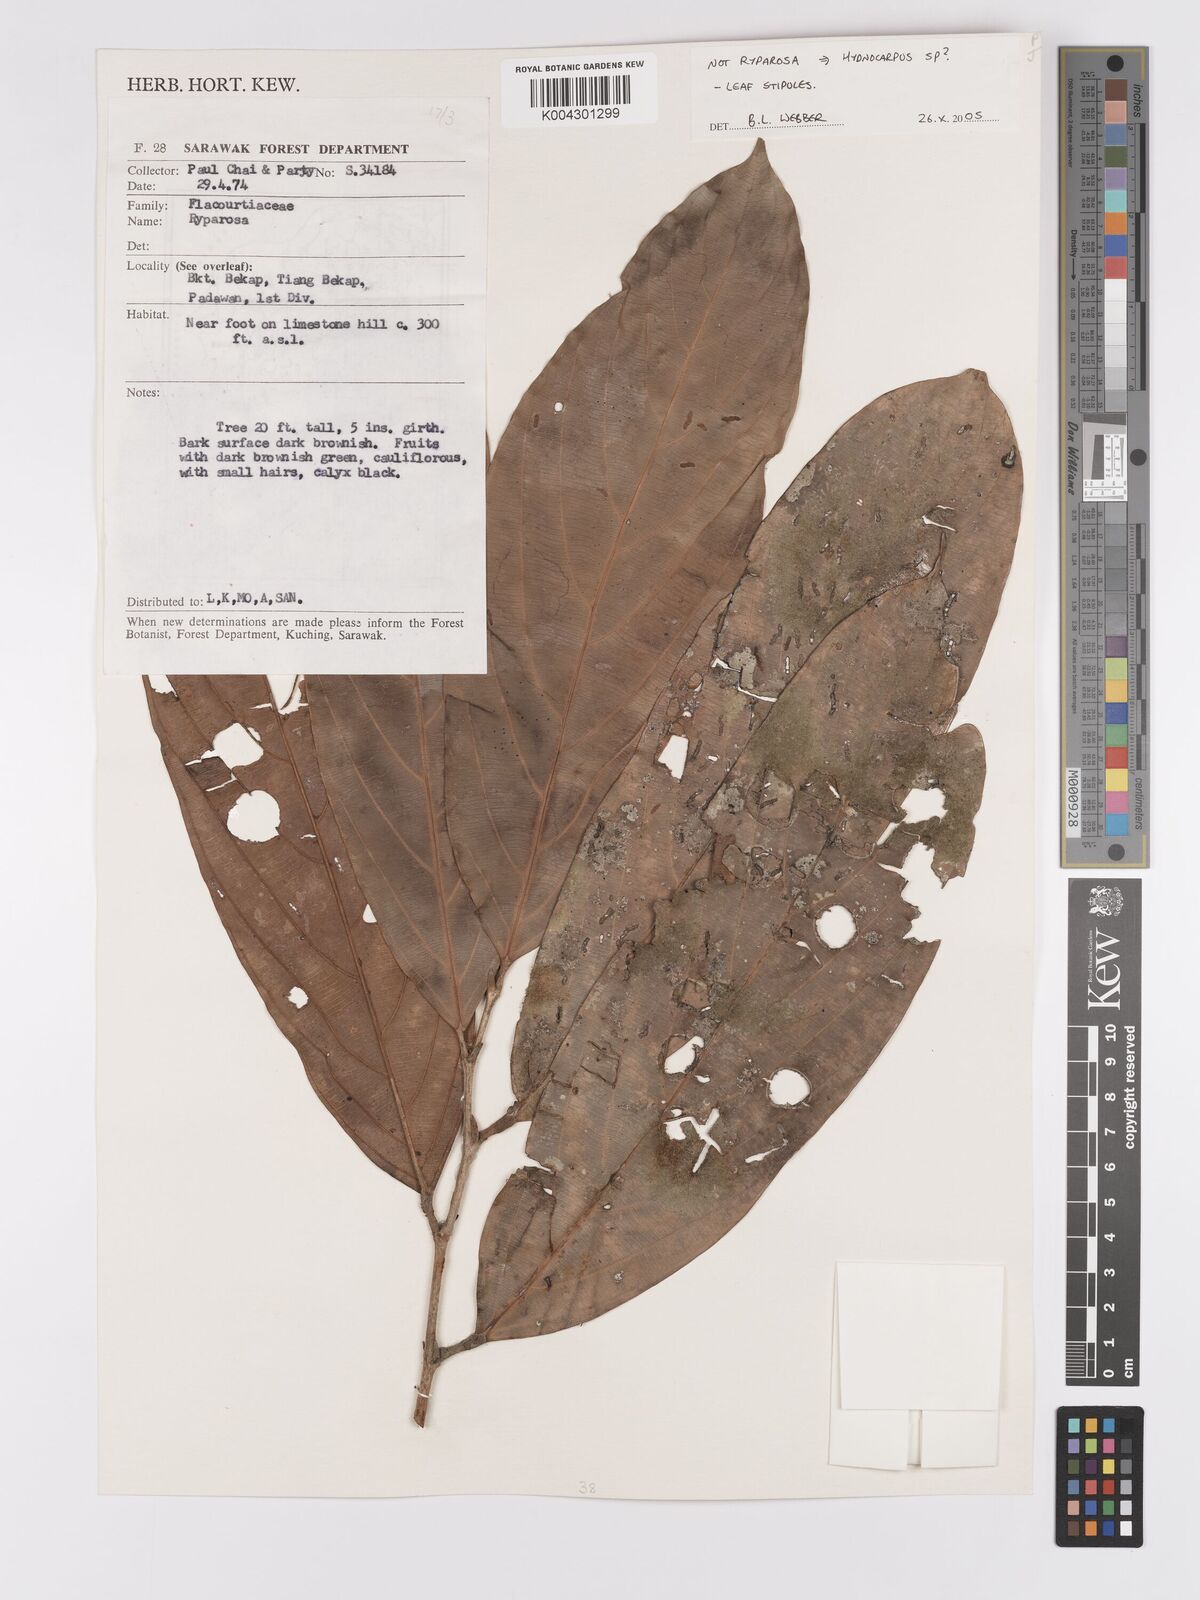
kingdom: Plantae
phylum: Tracheophyta
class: Magnoliopsida
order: Malpighiales
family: Achariaceae
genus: Hydnocarpus
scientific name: Hydnocarpus
